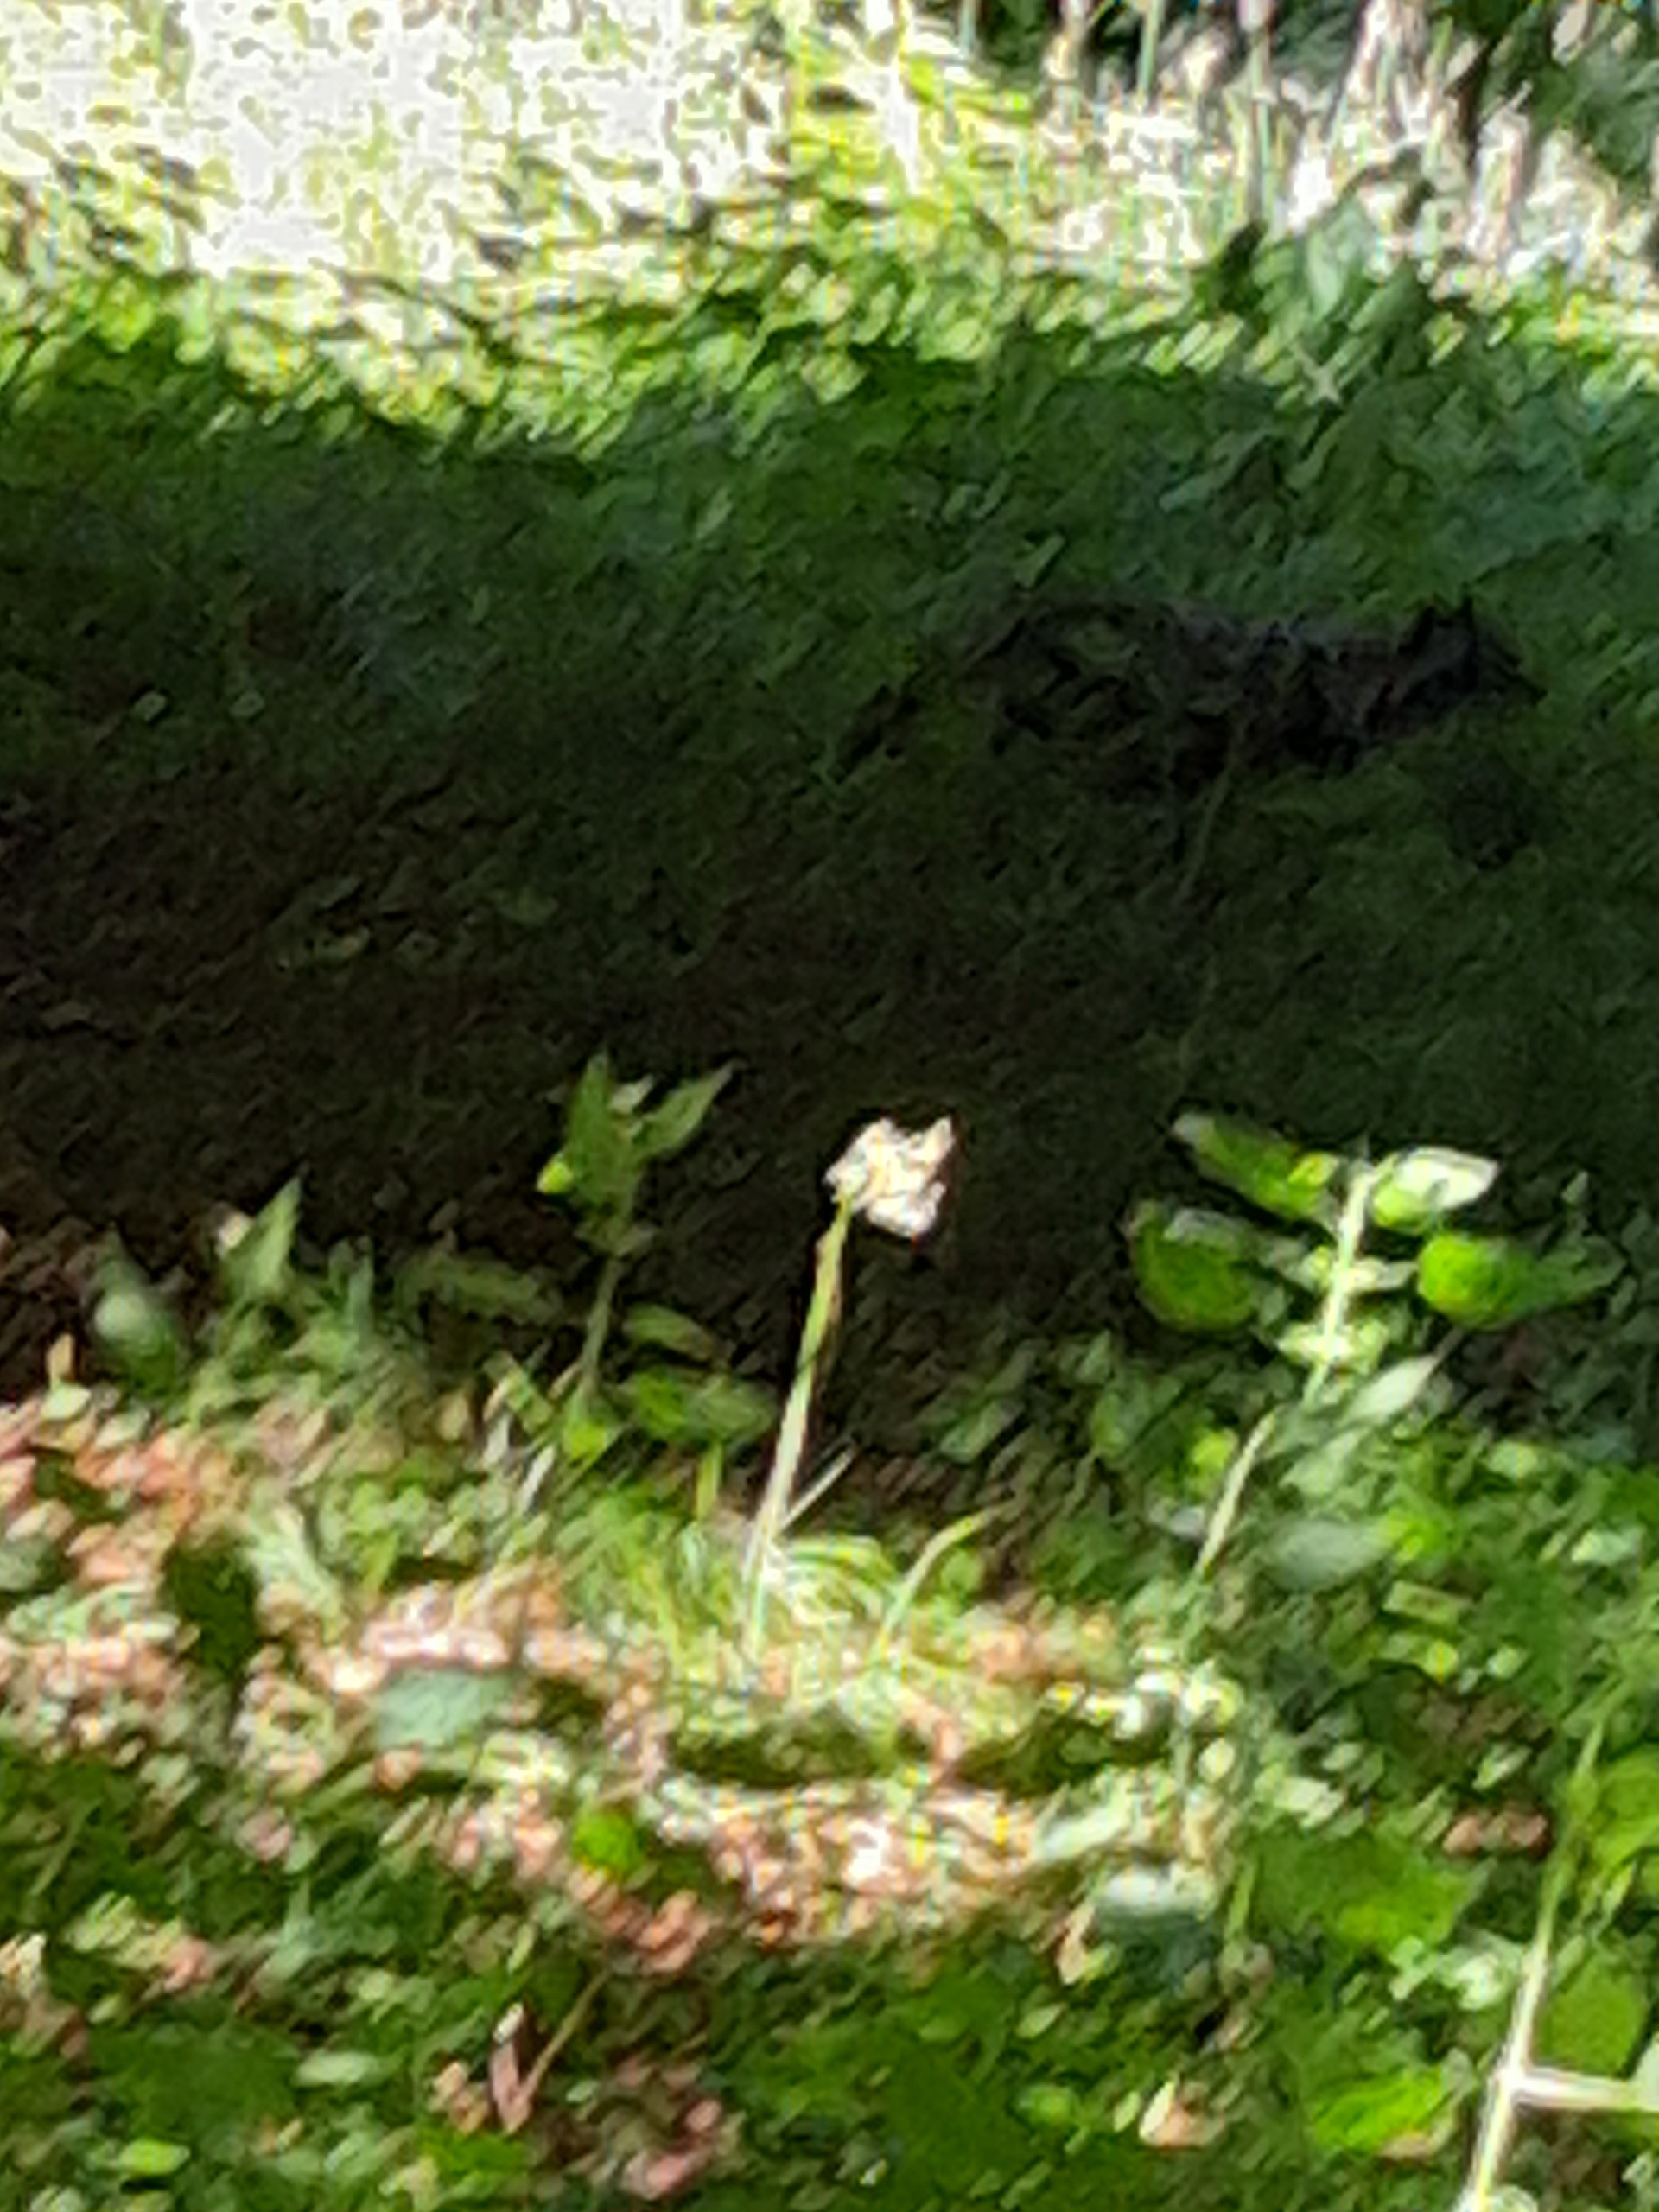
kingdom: Animalia
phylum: Chordata
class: Mammalia
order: Carnivora
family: Canidae
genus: Nyctereutes
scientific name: Nyctereutes procyonoides
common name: Mårhund
